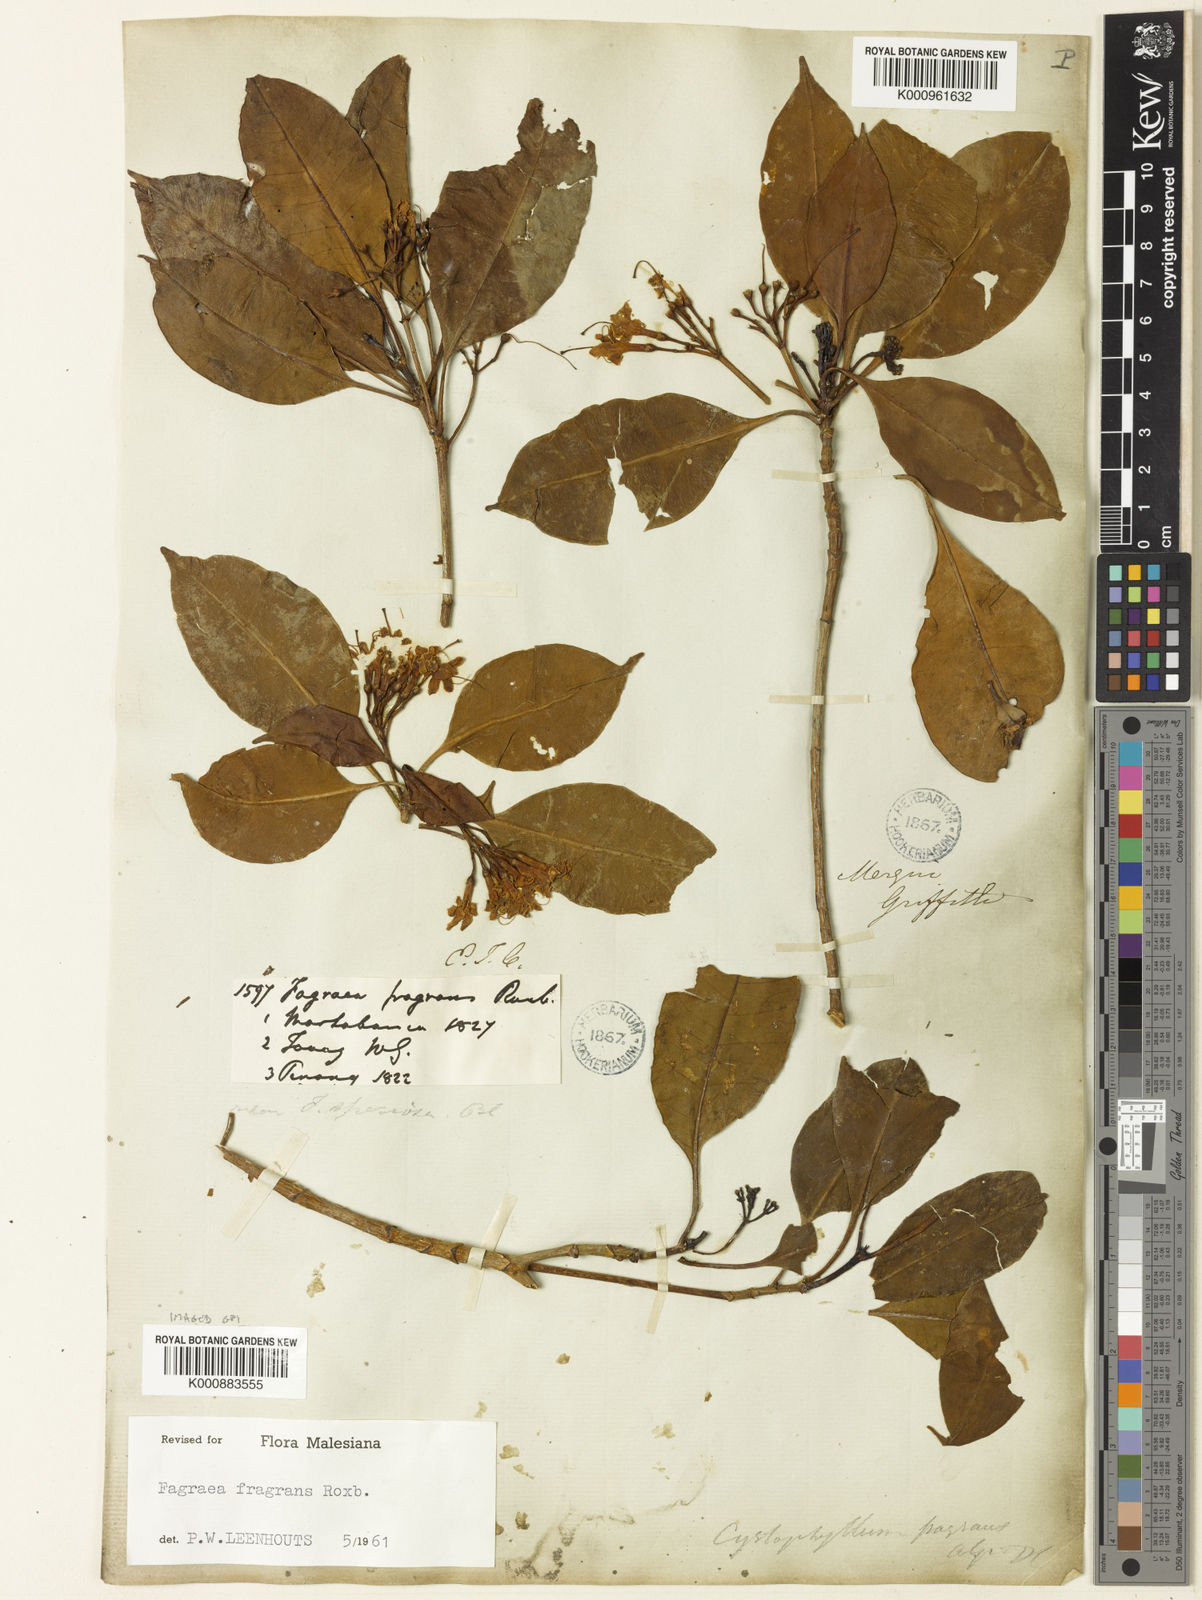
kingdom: Plantae
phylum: Tracheophyta
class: Magnoliopsida
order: Gentianales
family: Gentianaceae
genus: Cyrtophyllum
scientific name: Cyrtophyllum fragrans
